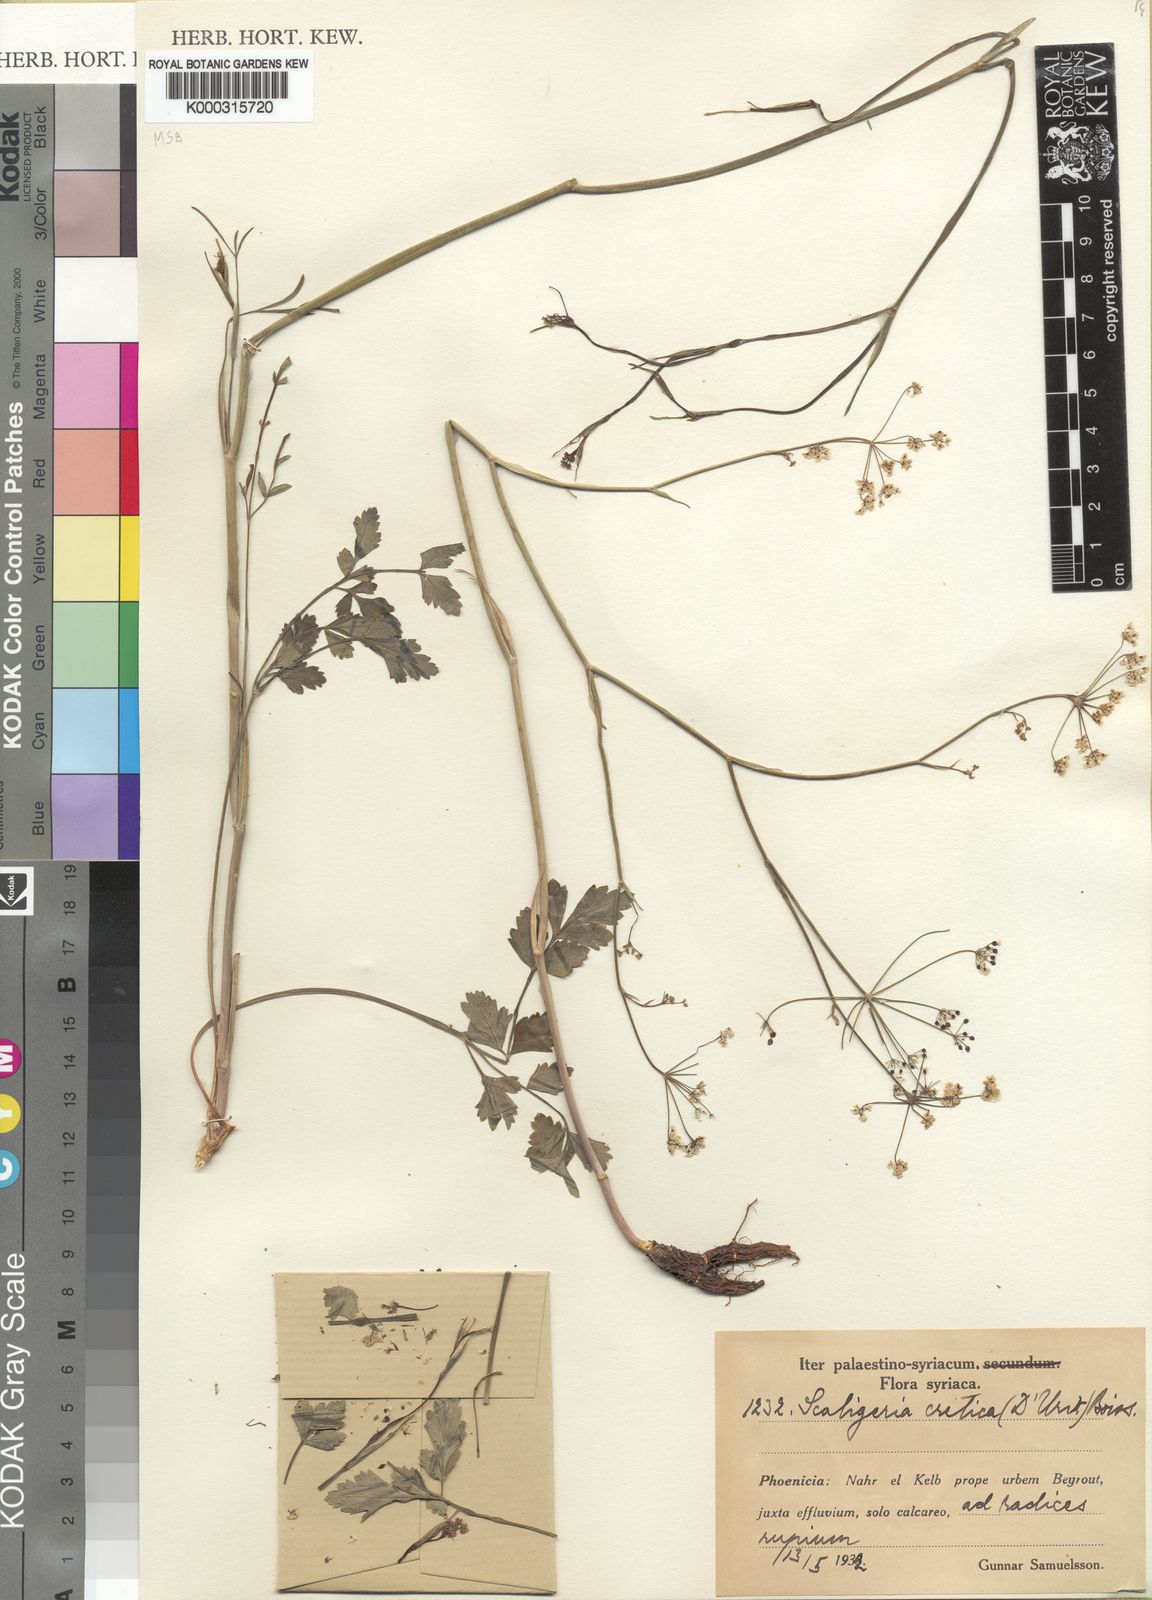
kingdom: Plantae
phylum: Tracheophyta
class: Magnoliopsida
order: Apiales
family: Apiaceae
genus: Scaligeria
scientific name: Scaligeria
